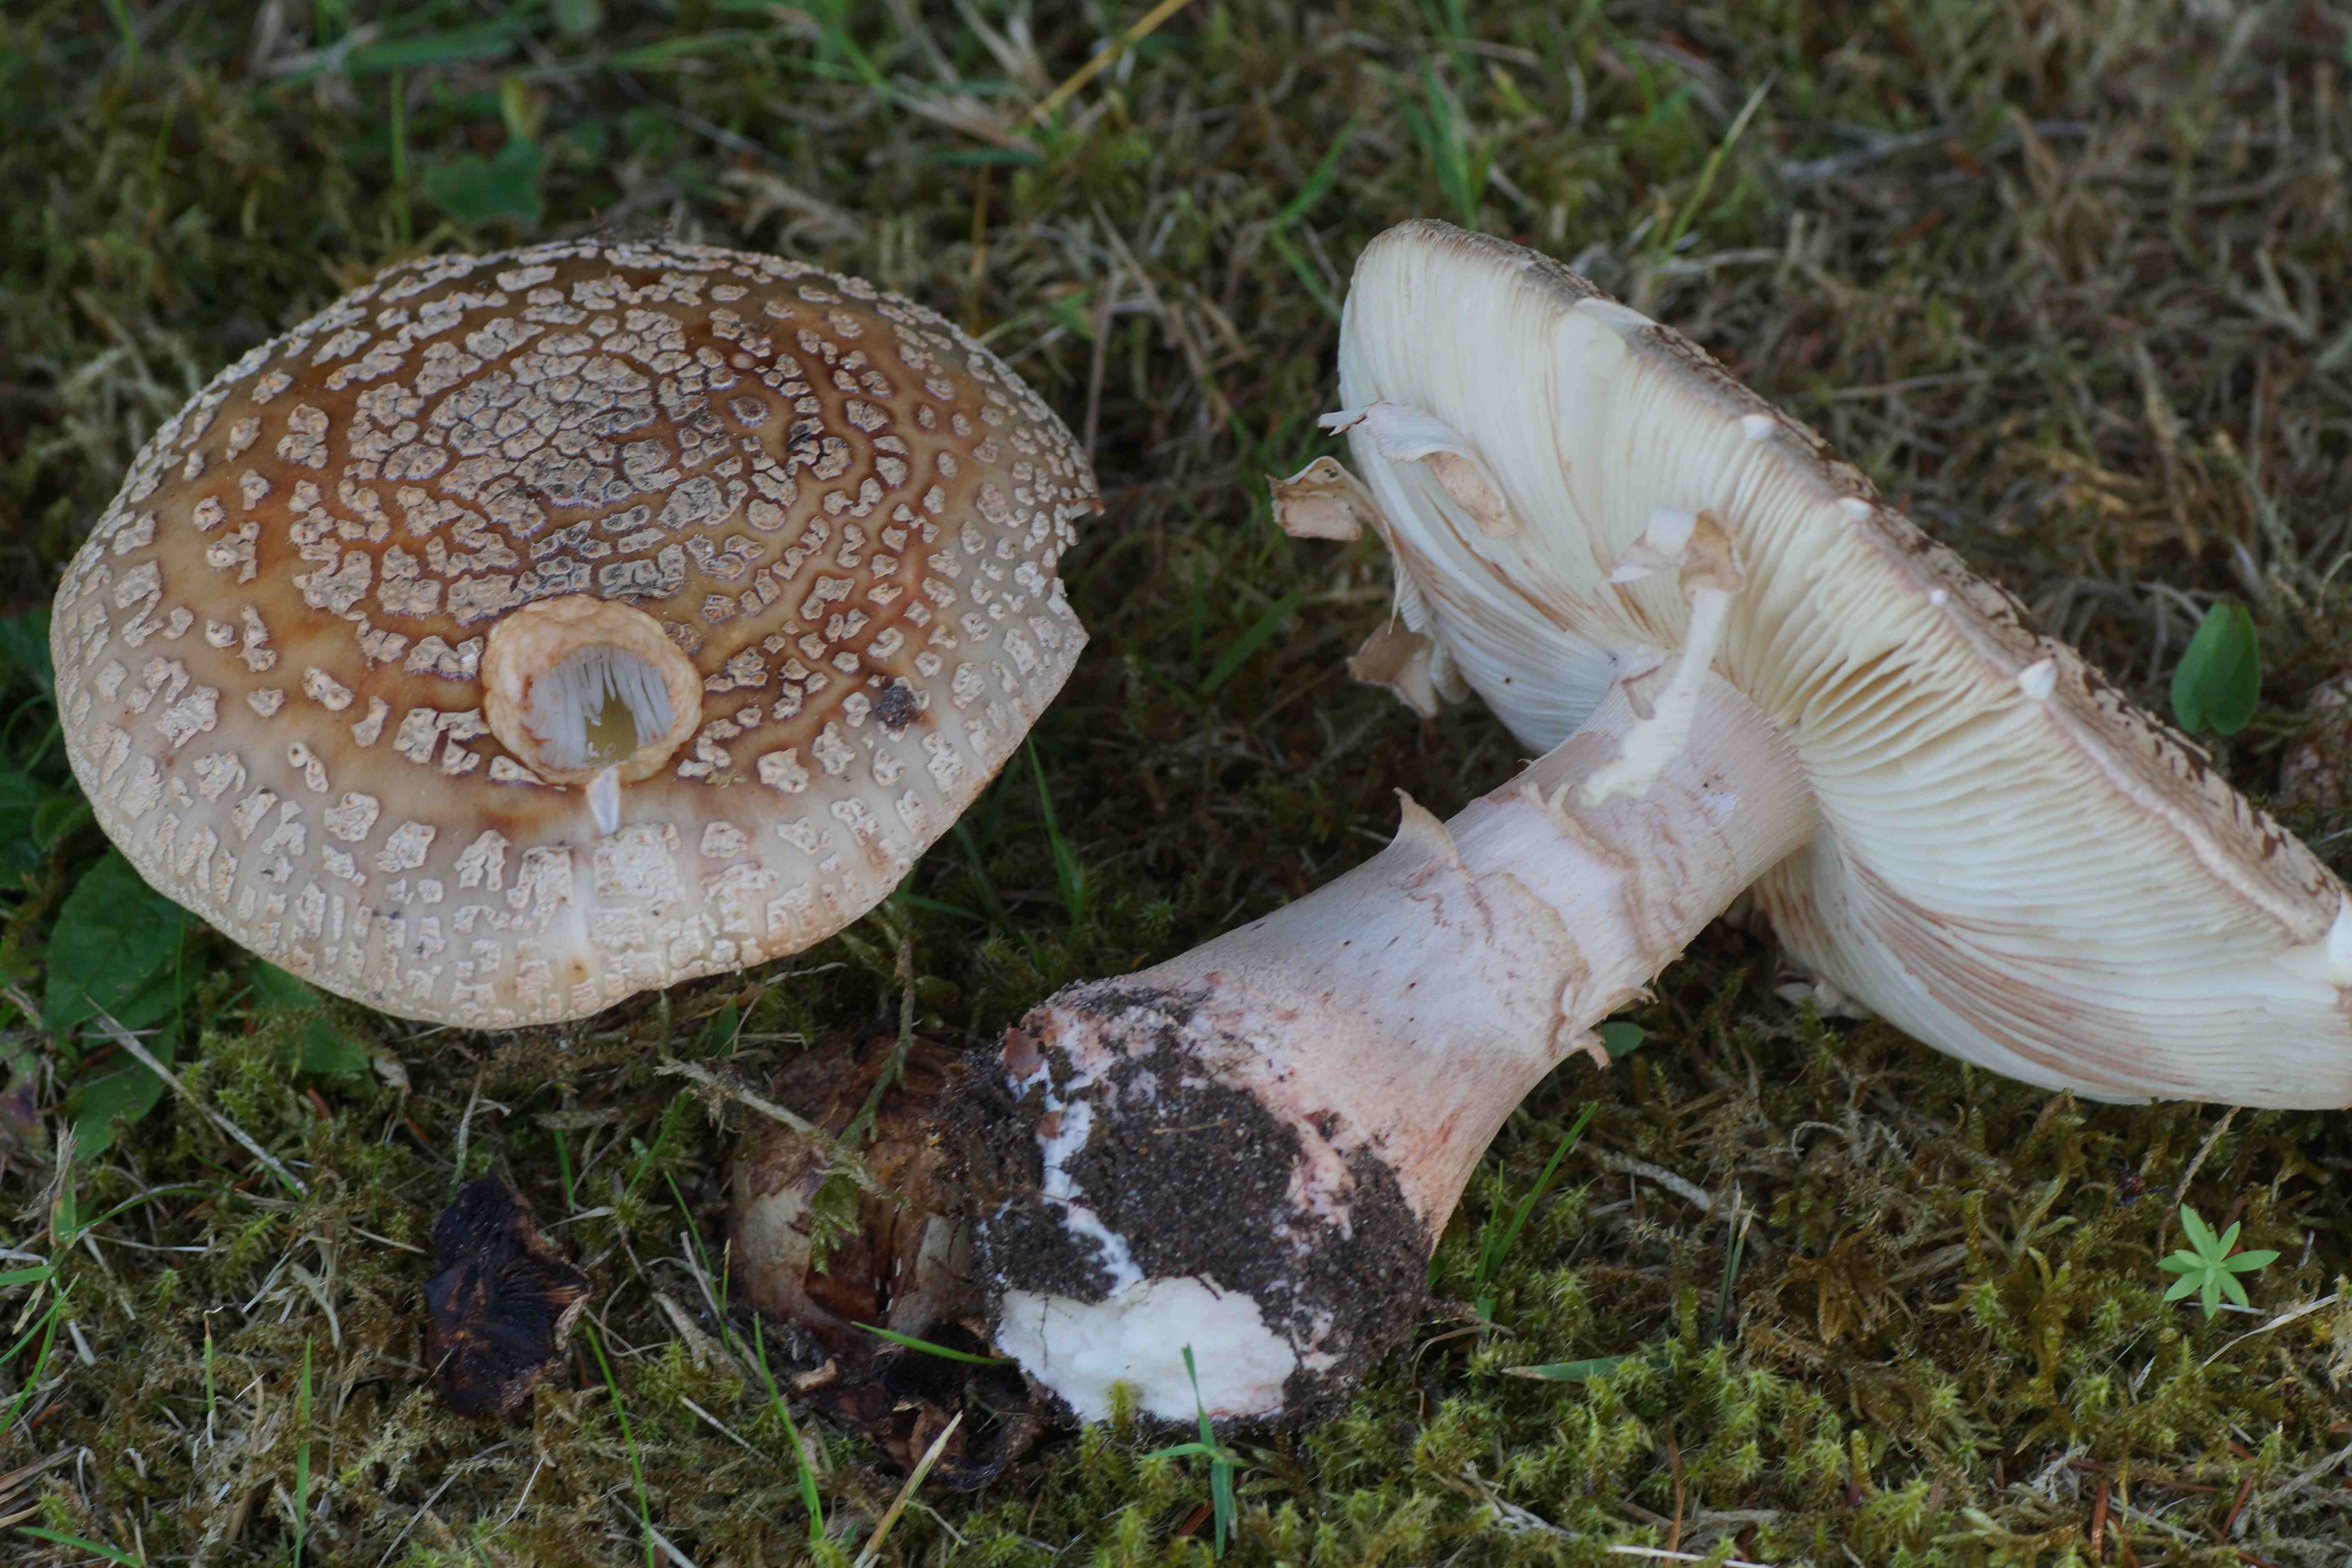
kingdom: Fungi
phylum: Basidiomycota
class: Agaricomycetes
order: Agaricales
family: Amanitaceae
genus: Amanita
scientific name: Amanita rubescens
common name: rødmende fluesvamp
